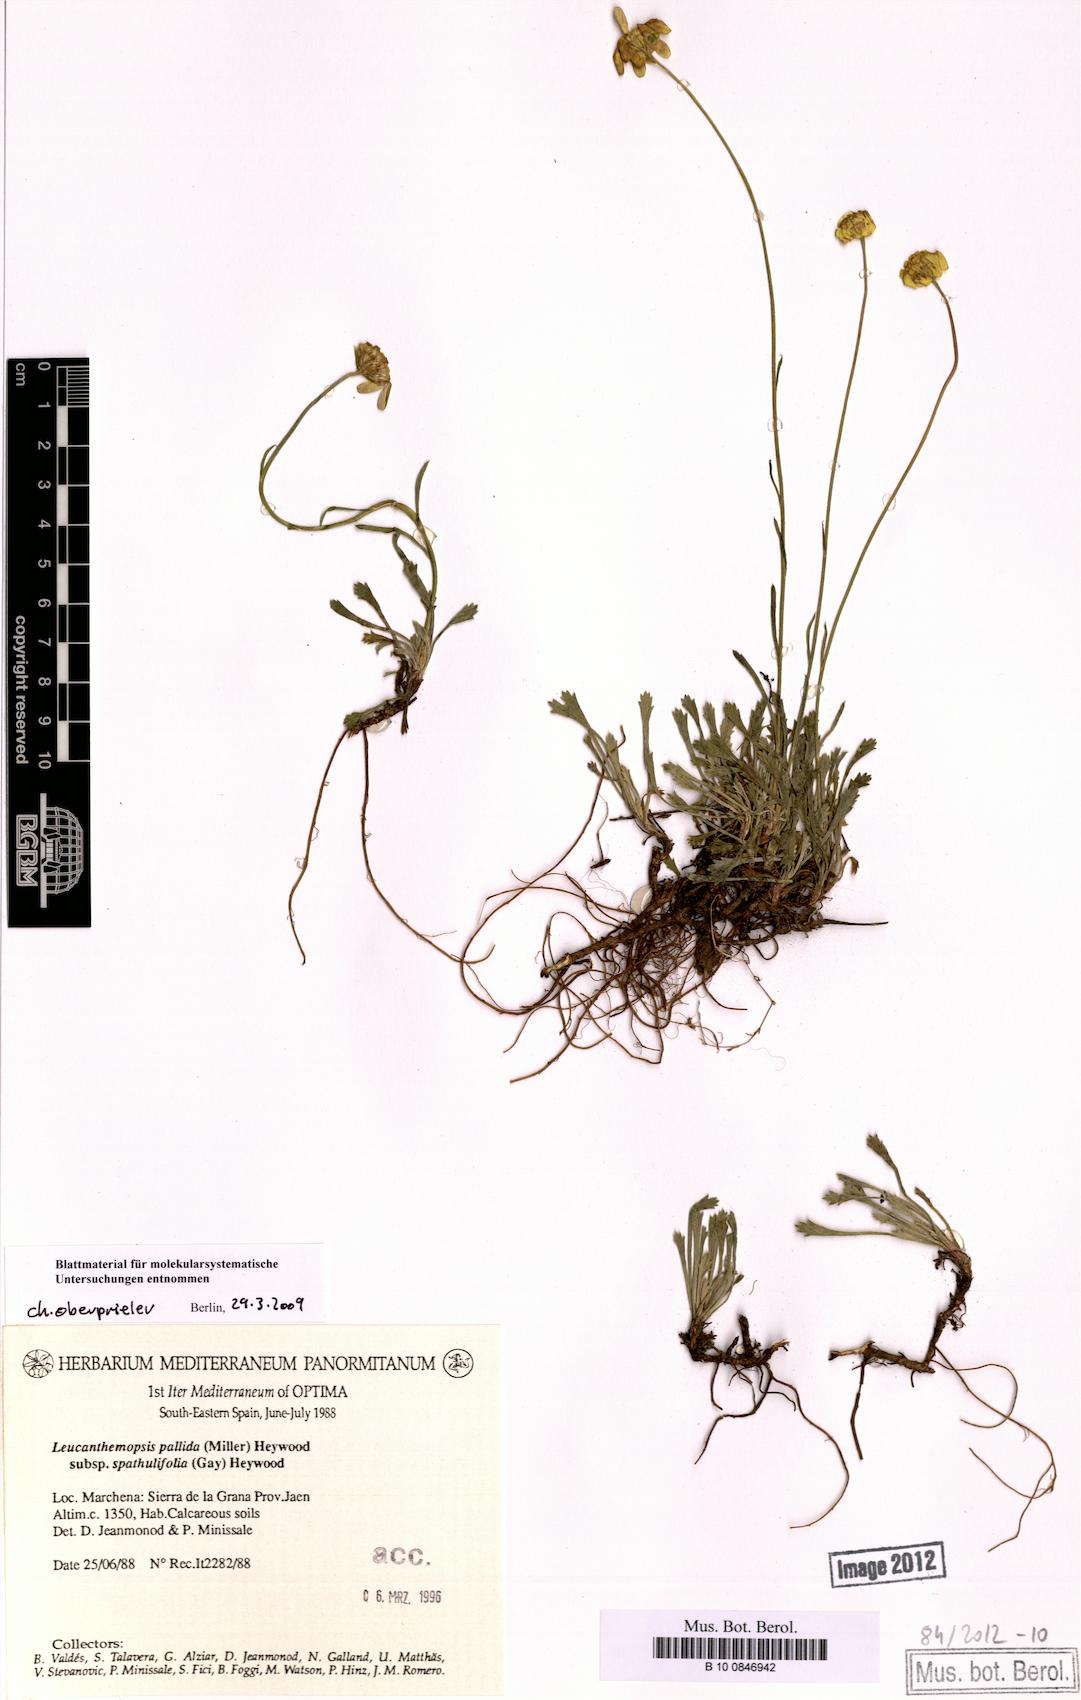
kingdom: Plantae
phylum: Tracheophyta
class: Magnoliopsida
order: Asterales
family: Asteraceae
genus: Leucanthemopsis
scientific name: Leucanthemopsis spathulifolia
